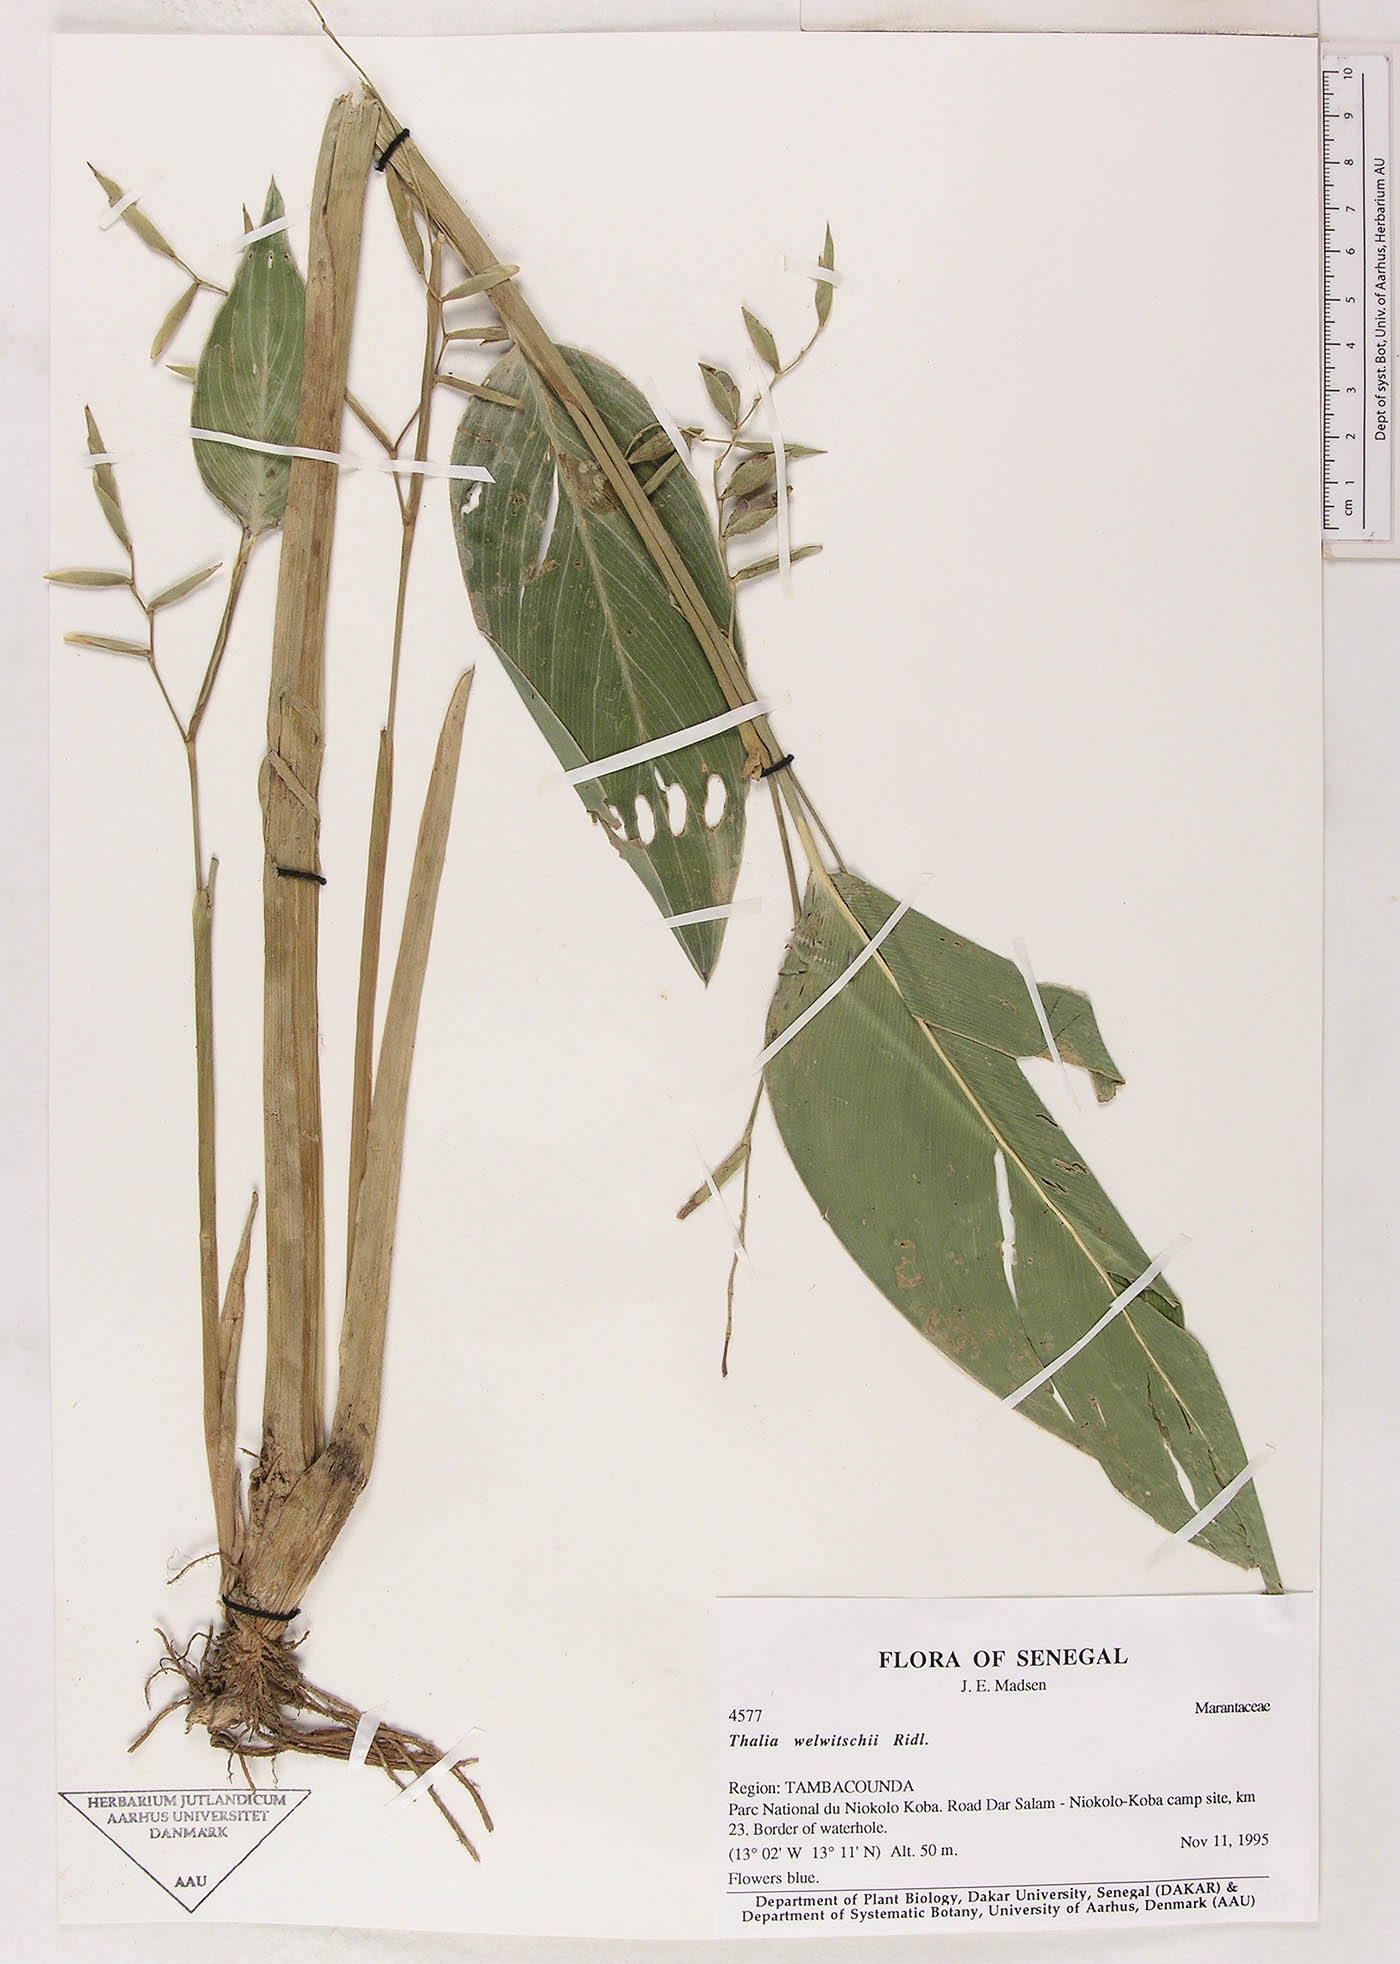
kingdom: Plantae
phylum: Tracheophyta
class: Liliopsida
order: Zingiberales
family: Marantaceae
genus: Thalia
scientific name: Thalia geniculata
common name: Arrowroot
